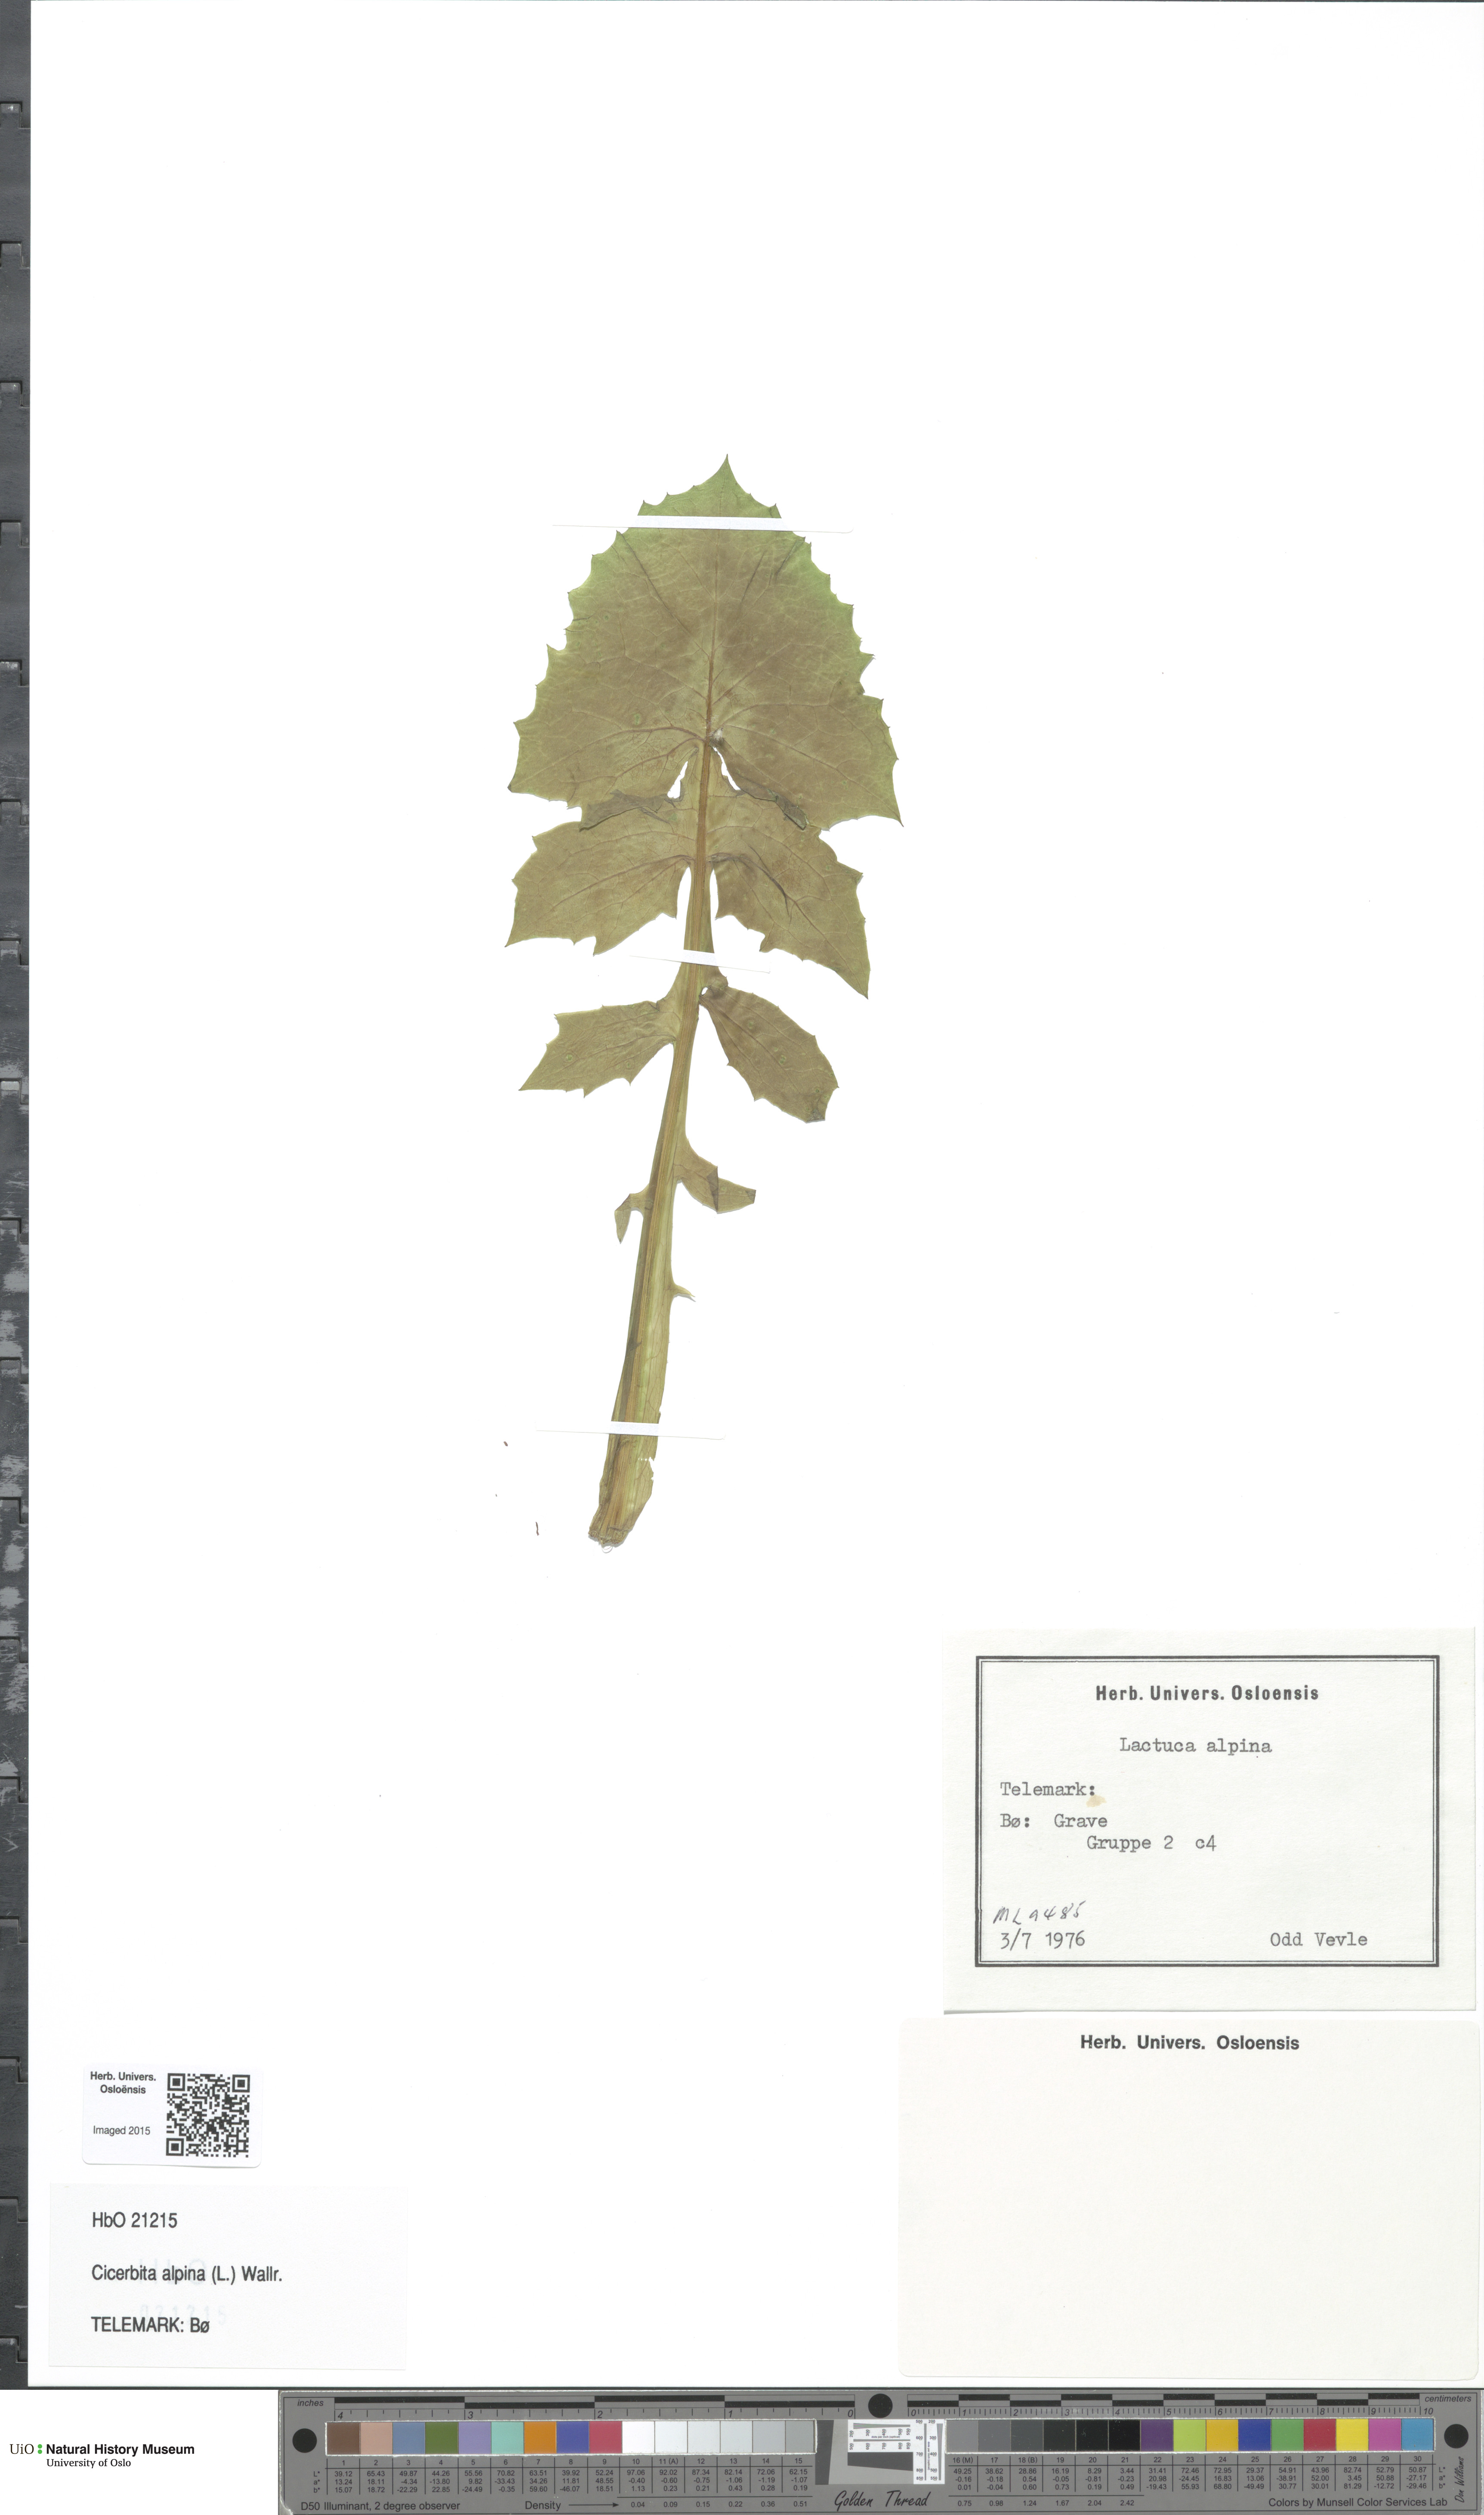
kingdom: Plantae
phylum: Tracheophyta
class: Magnoliopsida
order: Asterales
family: Asteraceae
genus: Cicerbita
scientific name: Cicerbita alpina
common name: Alpine blue-sow-thistle
